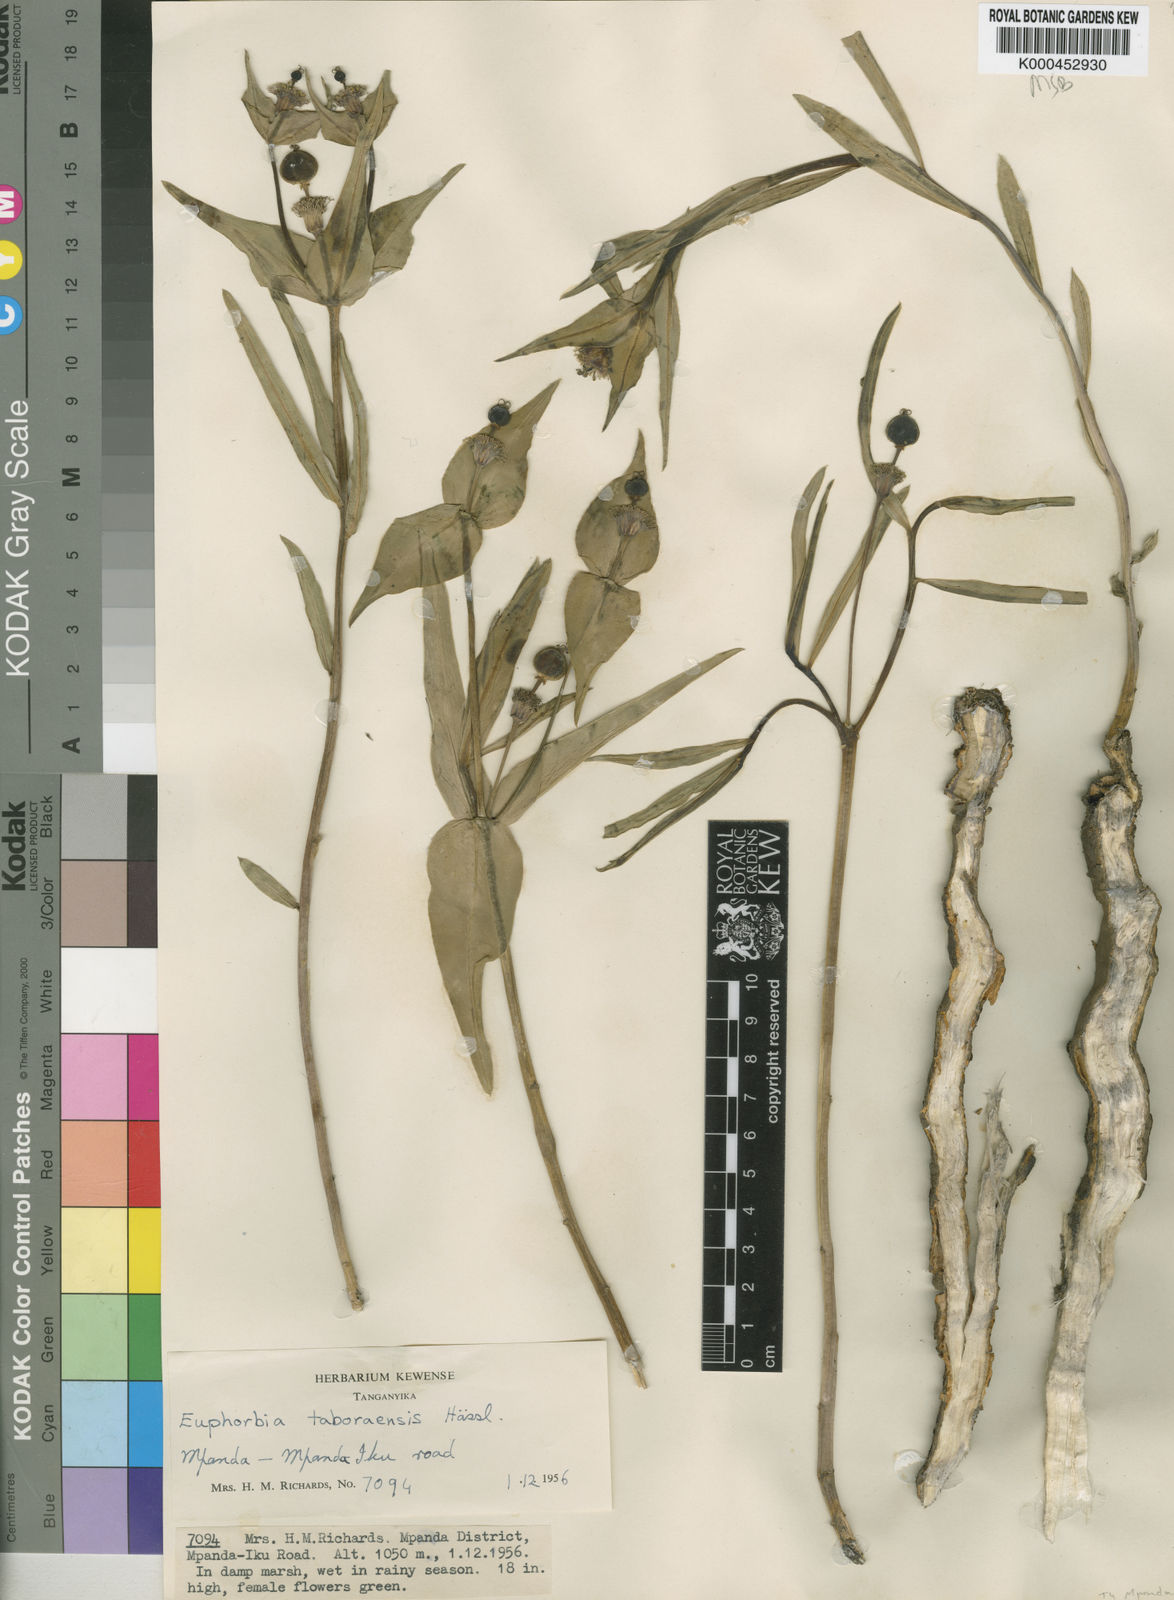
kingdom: Plantae
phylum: Tracheophyta
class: Magnoliopsida
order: Malpighiales
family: Euphorbiaceae
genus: Euphorbia
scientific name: Euphorbia taboraensis
